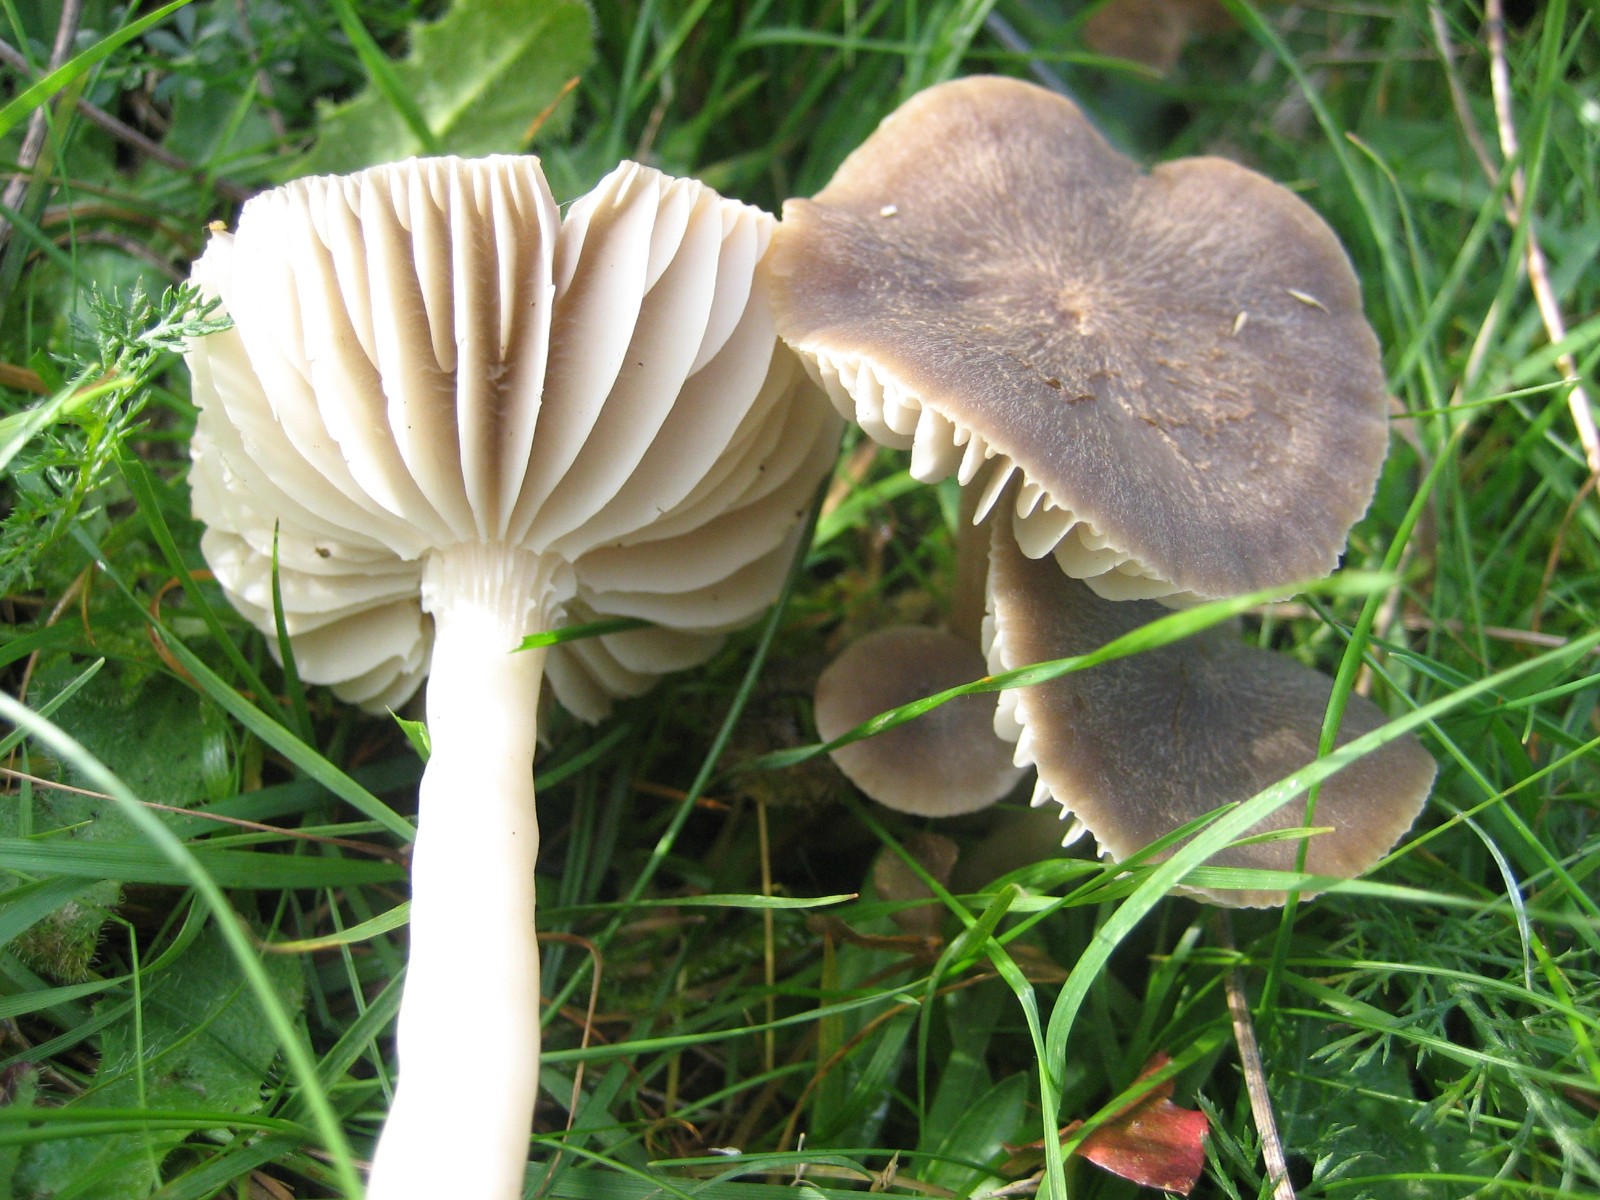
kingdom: Fungi
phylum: Basidiomycota
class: Agaricomycetes
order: Agaricales
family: Hygrophoraceae
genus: Neohygrocybe
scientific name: Neohygrocybe nitrata
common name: stinkende vokshat
